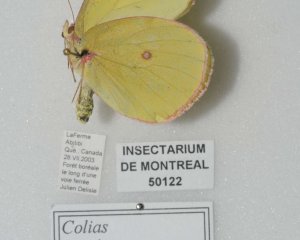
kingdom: Animalia
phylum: Arthropoda
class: Insecta
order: Lepidoptera
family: Pieridae
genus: Colias
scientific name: Colias interior
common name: Pink-edged Sulphur
